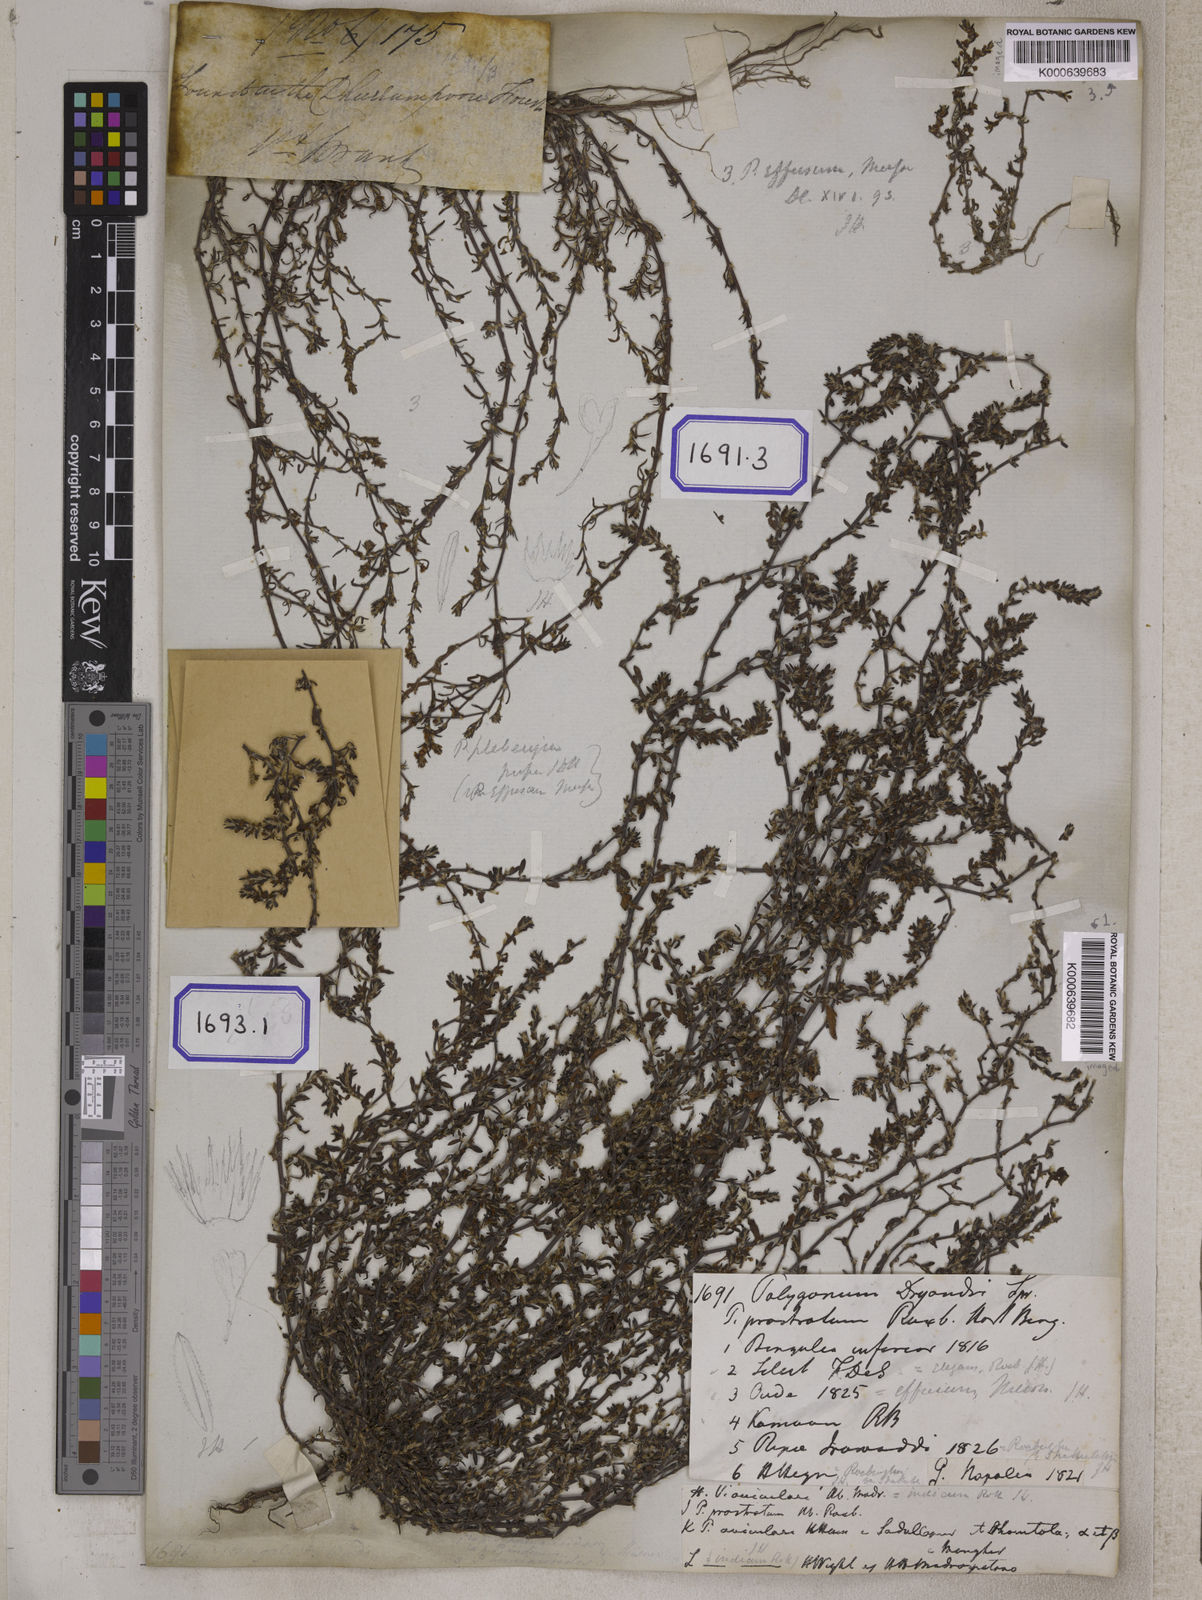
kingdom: Plantae
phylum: Tracheophyta
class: Magnoliopsida
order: Caryophyllales
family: Polygonaceae
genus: Polygonum
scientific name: Polygonum effusum
